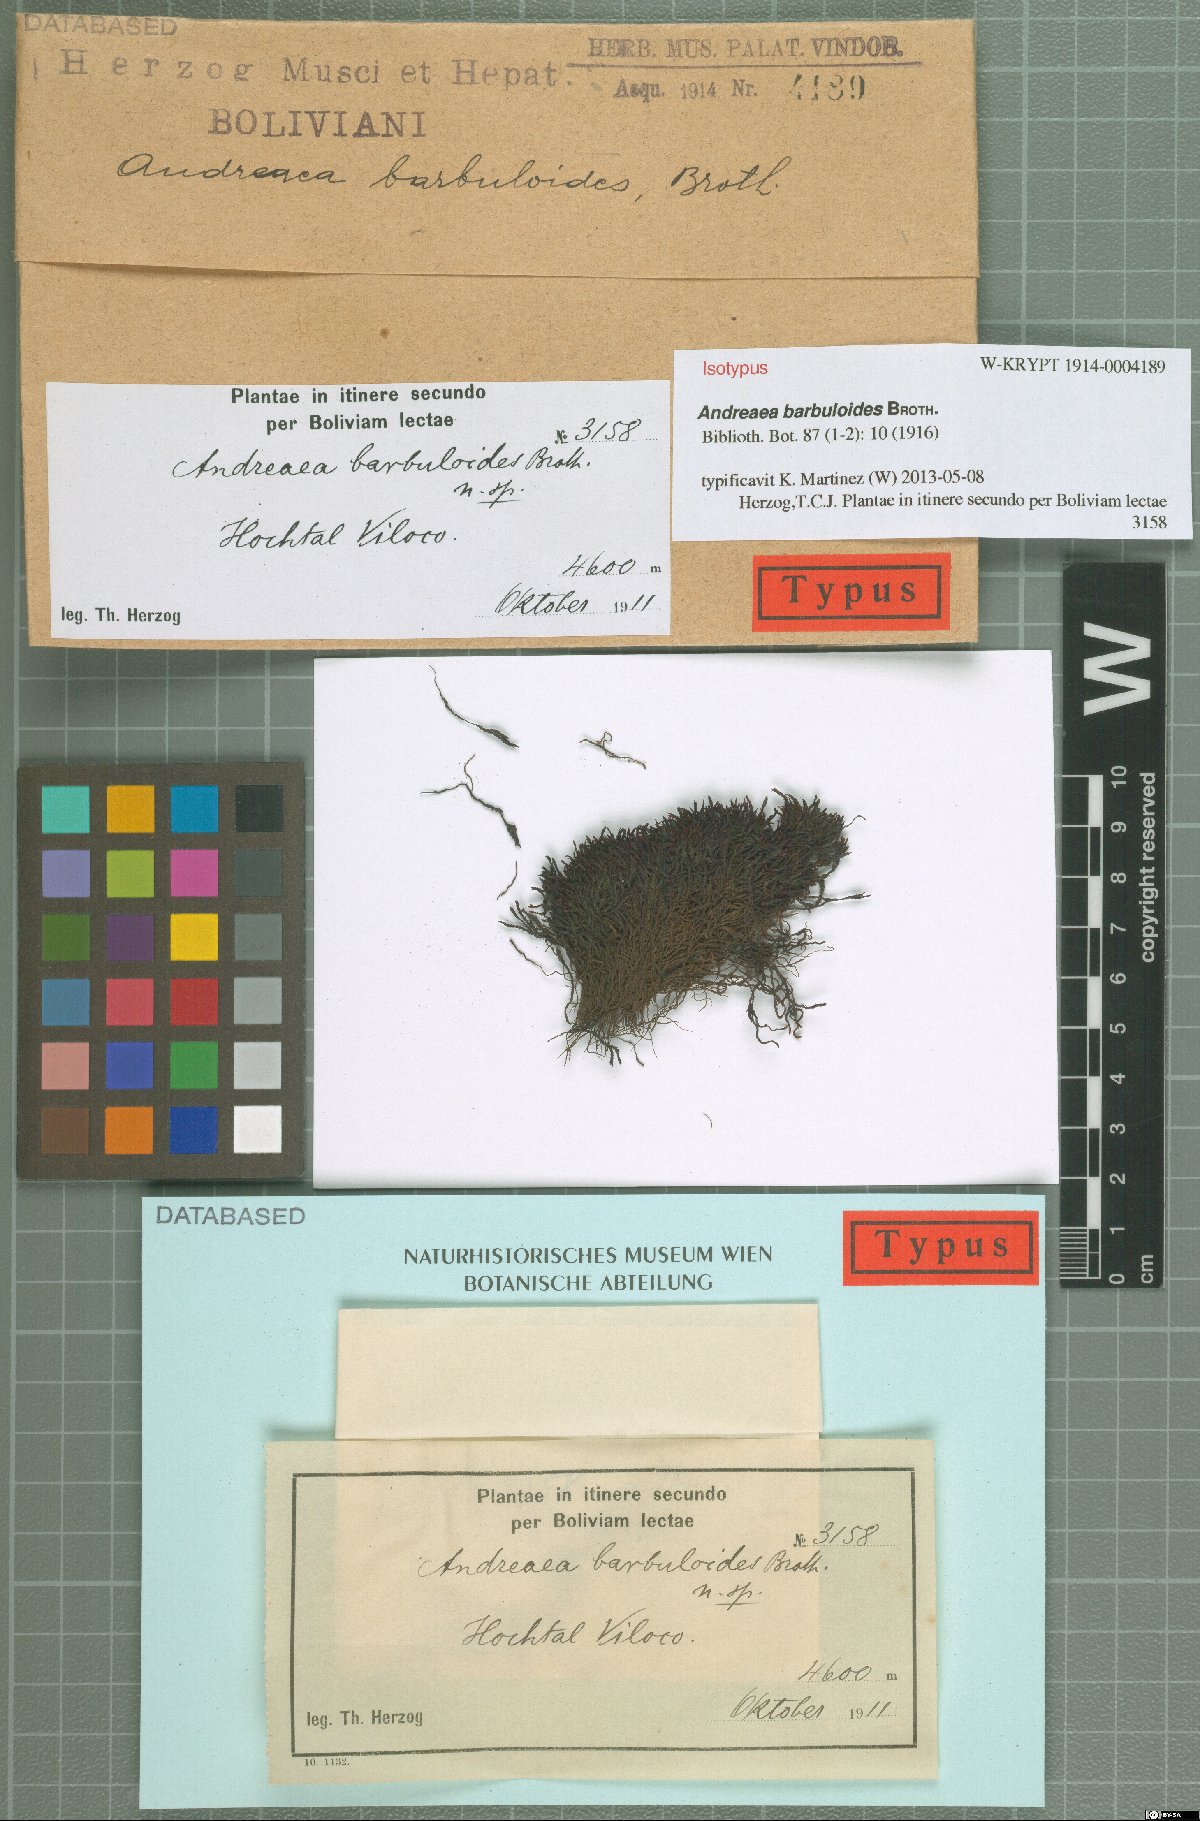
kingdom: Plantae
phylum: Bryophyta
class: Andreaeopsida
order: Andreaeales
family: Andreaeaceae
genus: Andreaea
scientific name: Andreaea barbuloides
